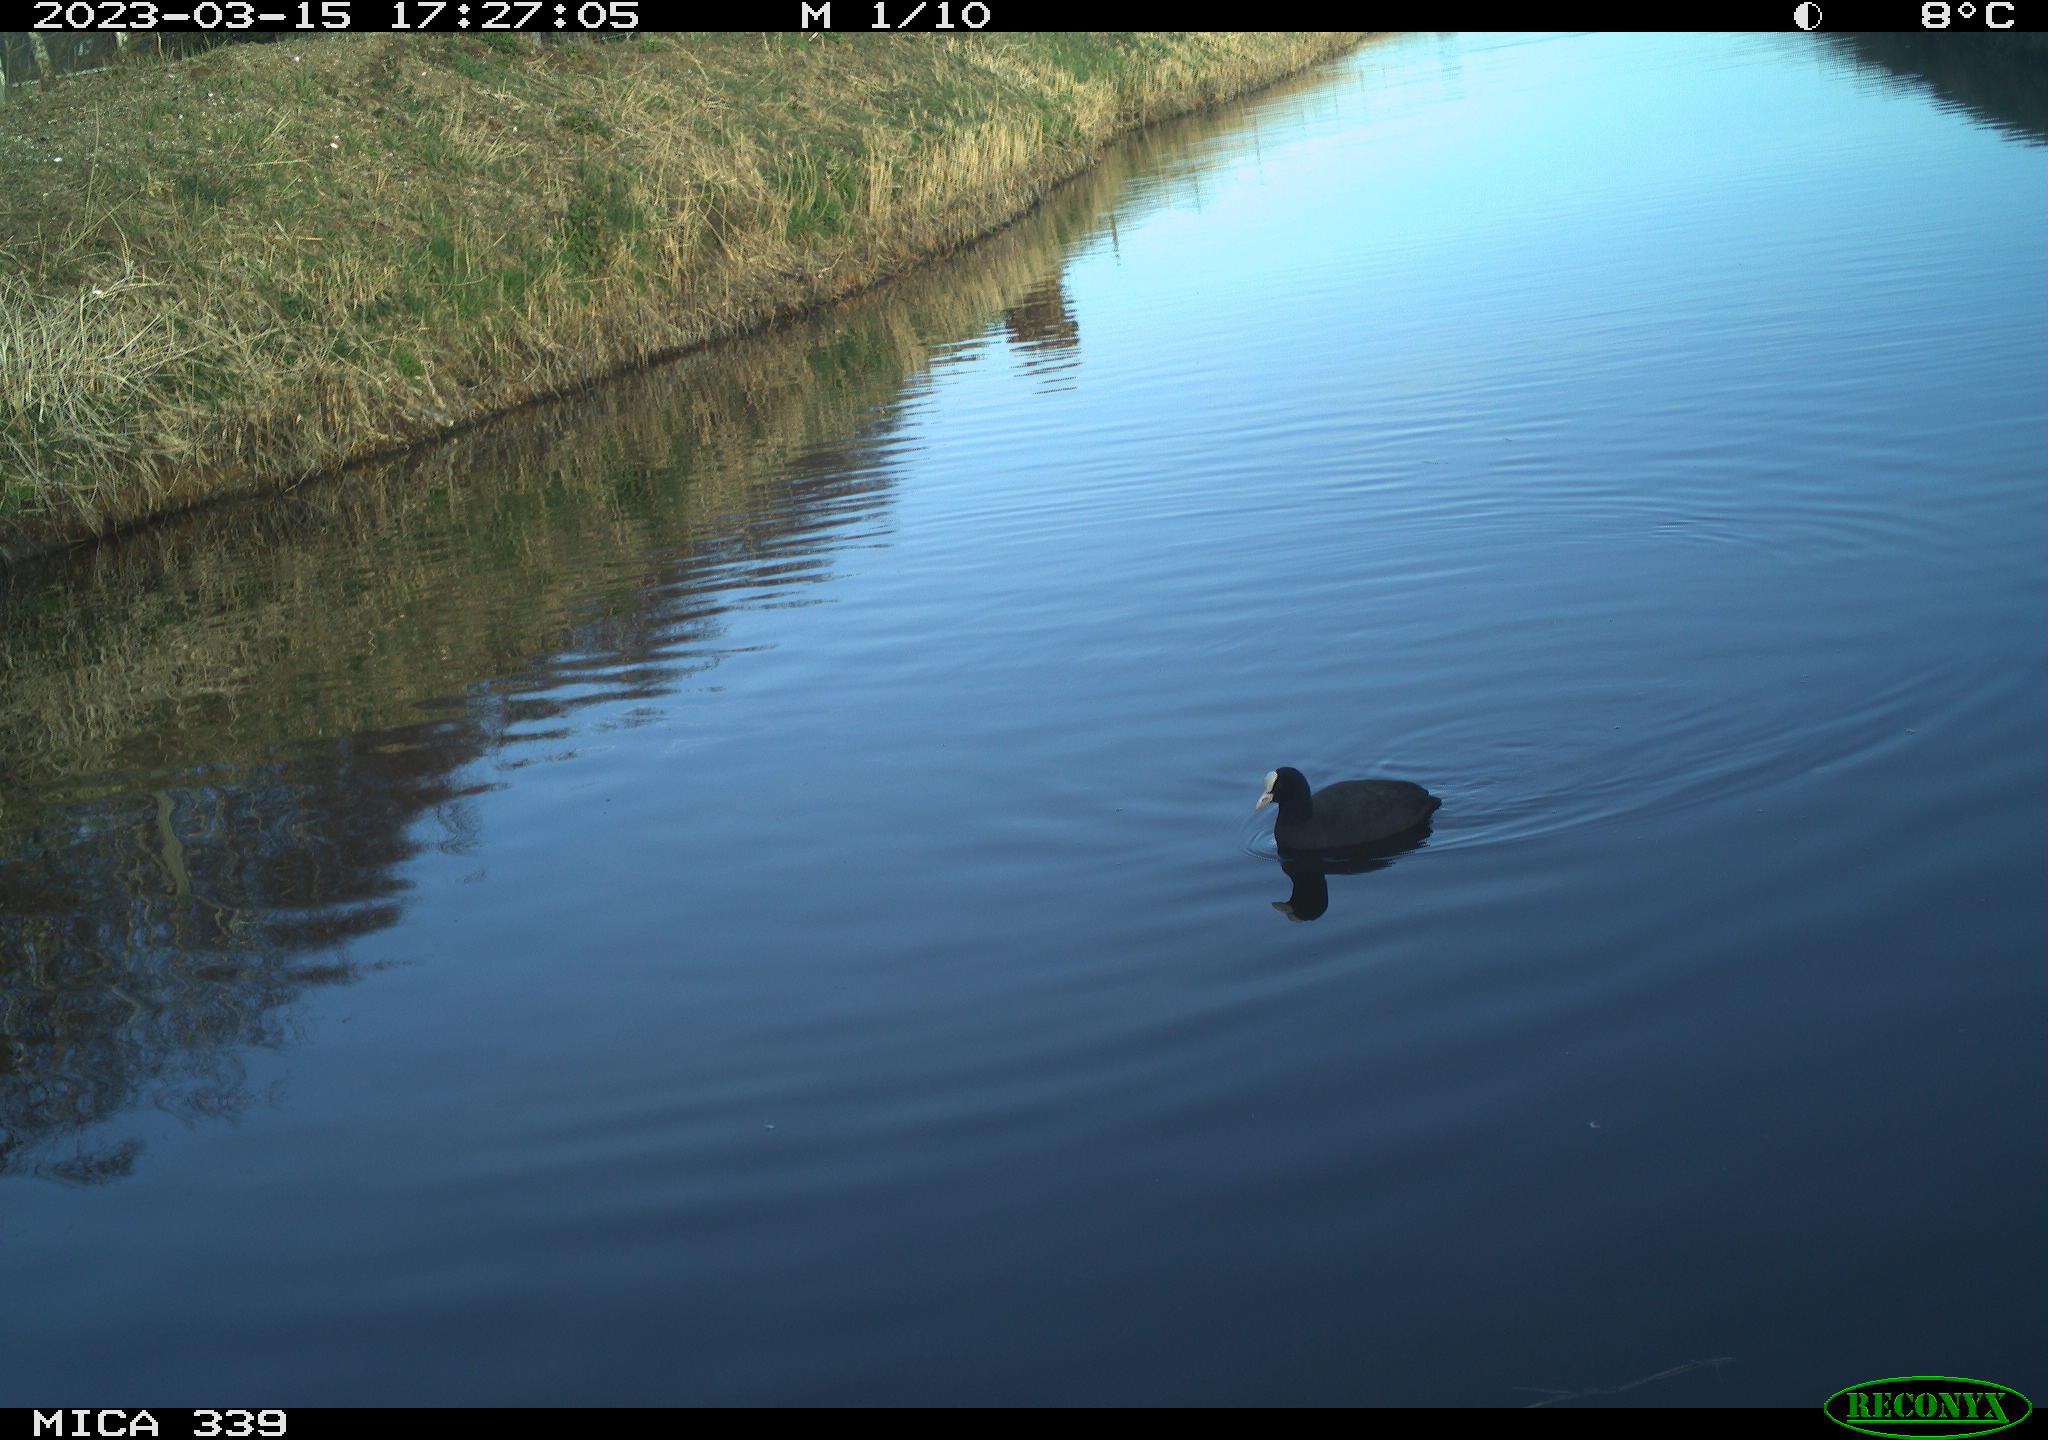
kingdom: Animalia
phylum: Chordata
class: Aves
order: Gruiformes
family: Rallidae
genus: Fulica
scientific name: Fulica atra
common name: Eurasian coot
